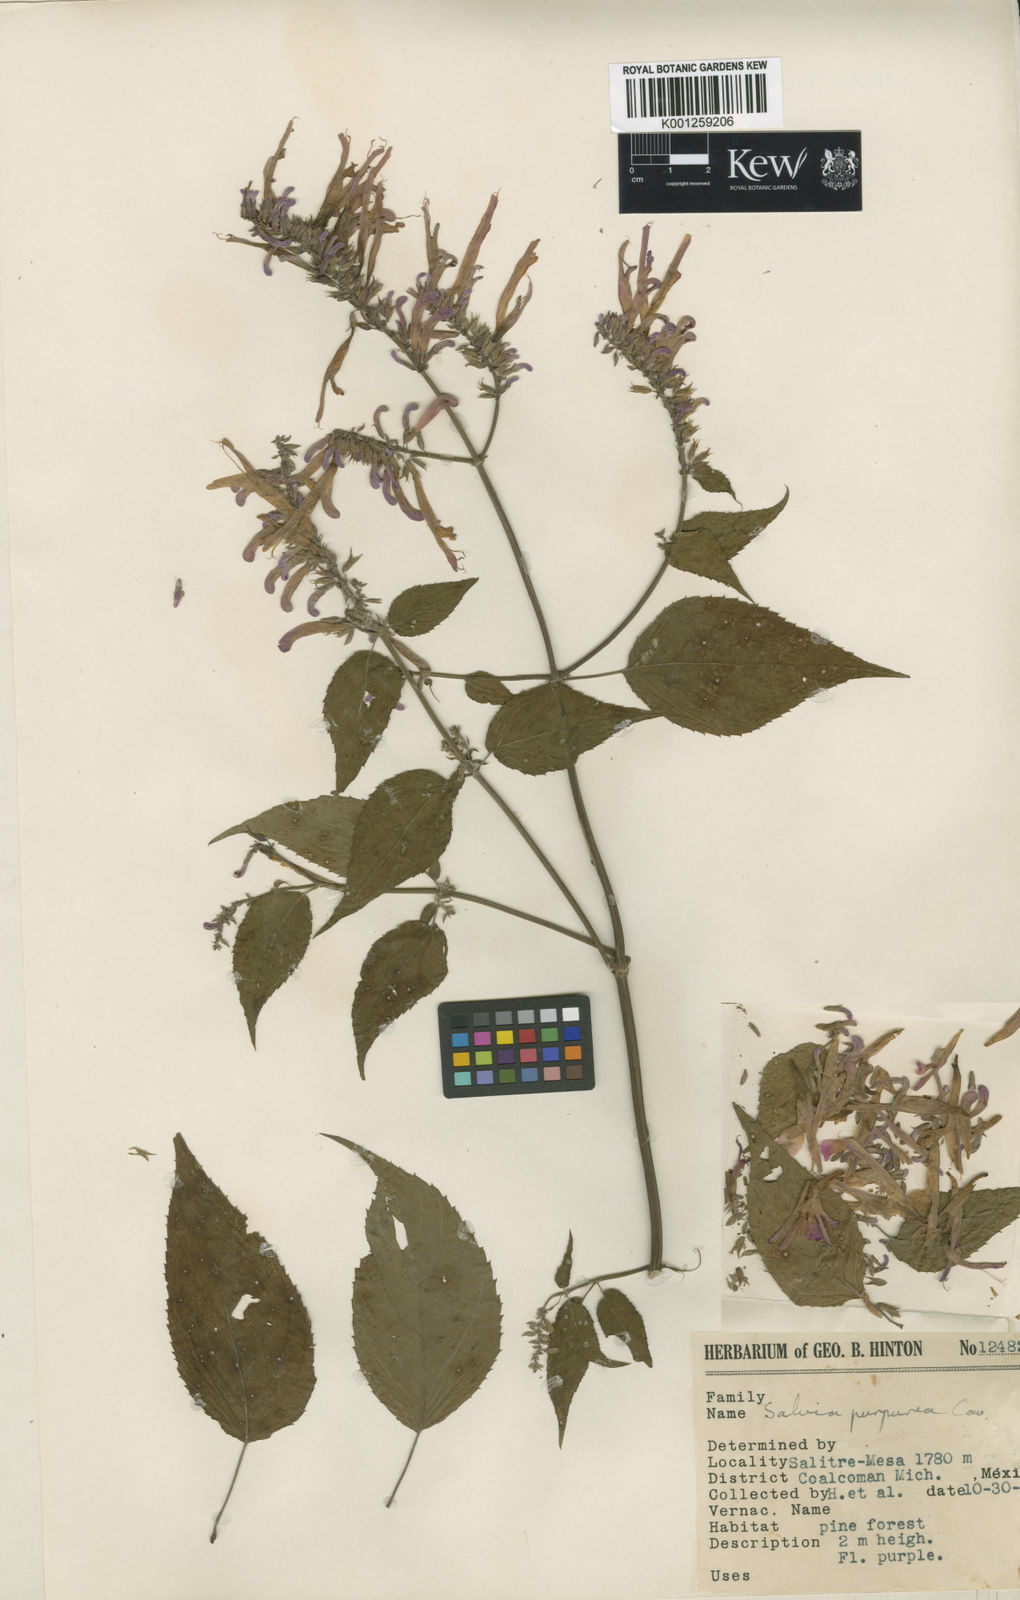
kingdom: Plantae
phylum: Tracheophyta
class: Magnoliopsida
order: Lamiales
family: Lamiaceae
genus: Salvia
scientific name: Salvia
